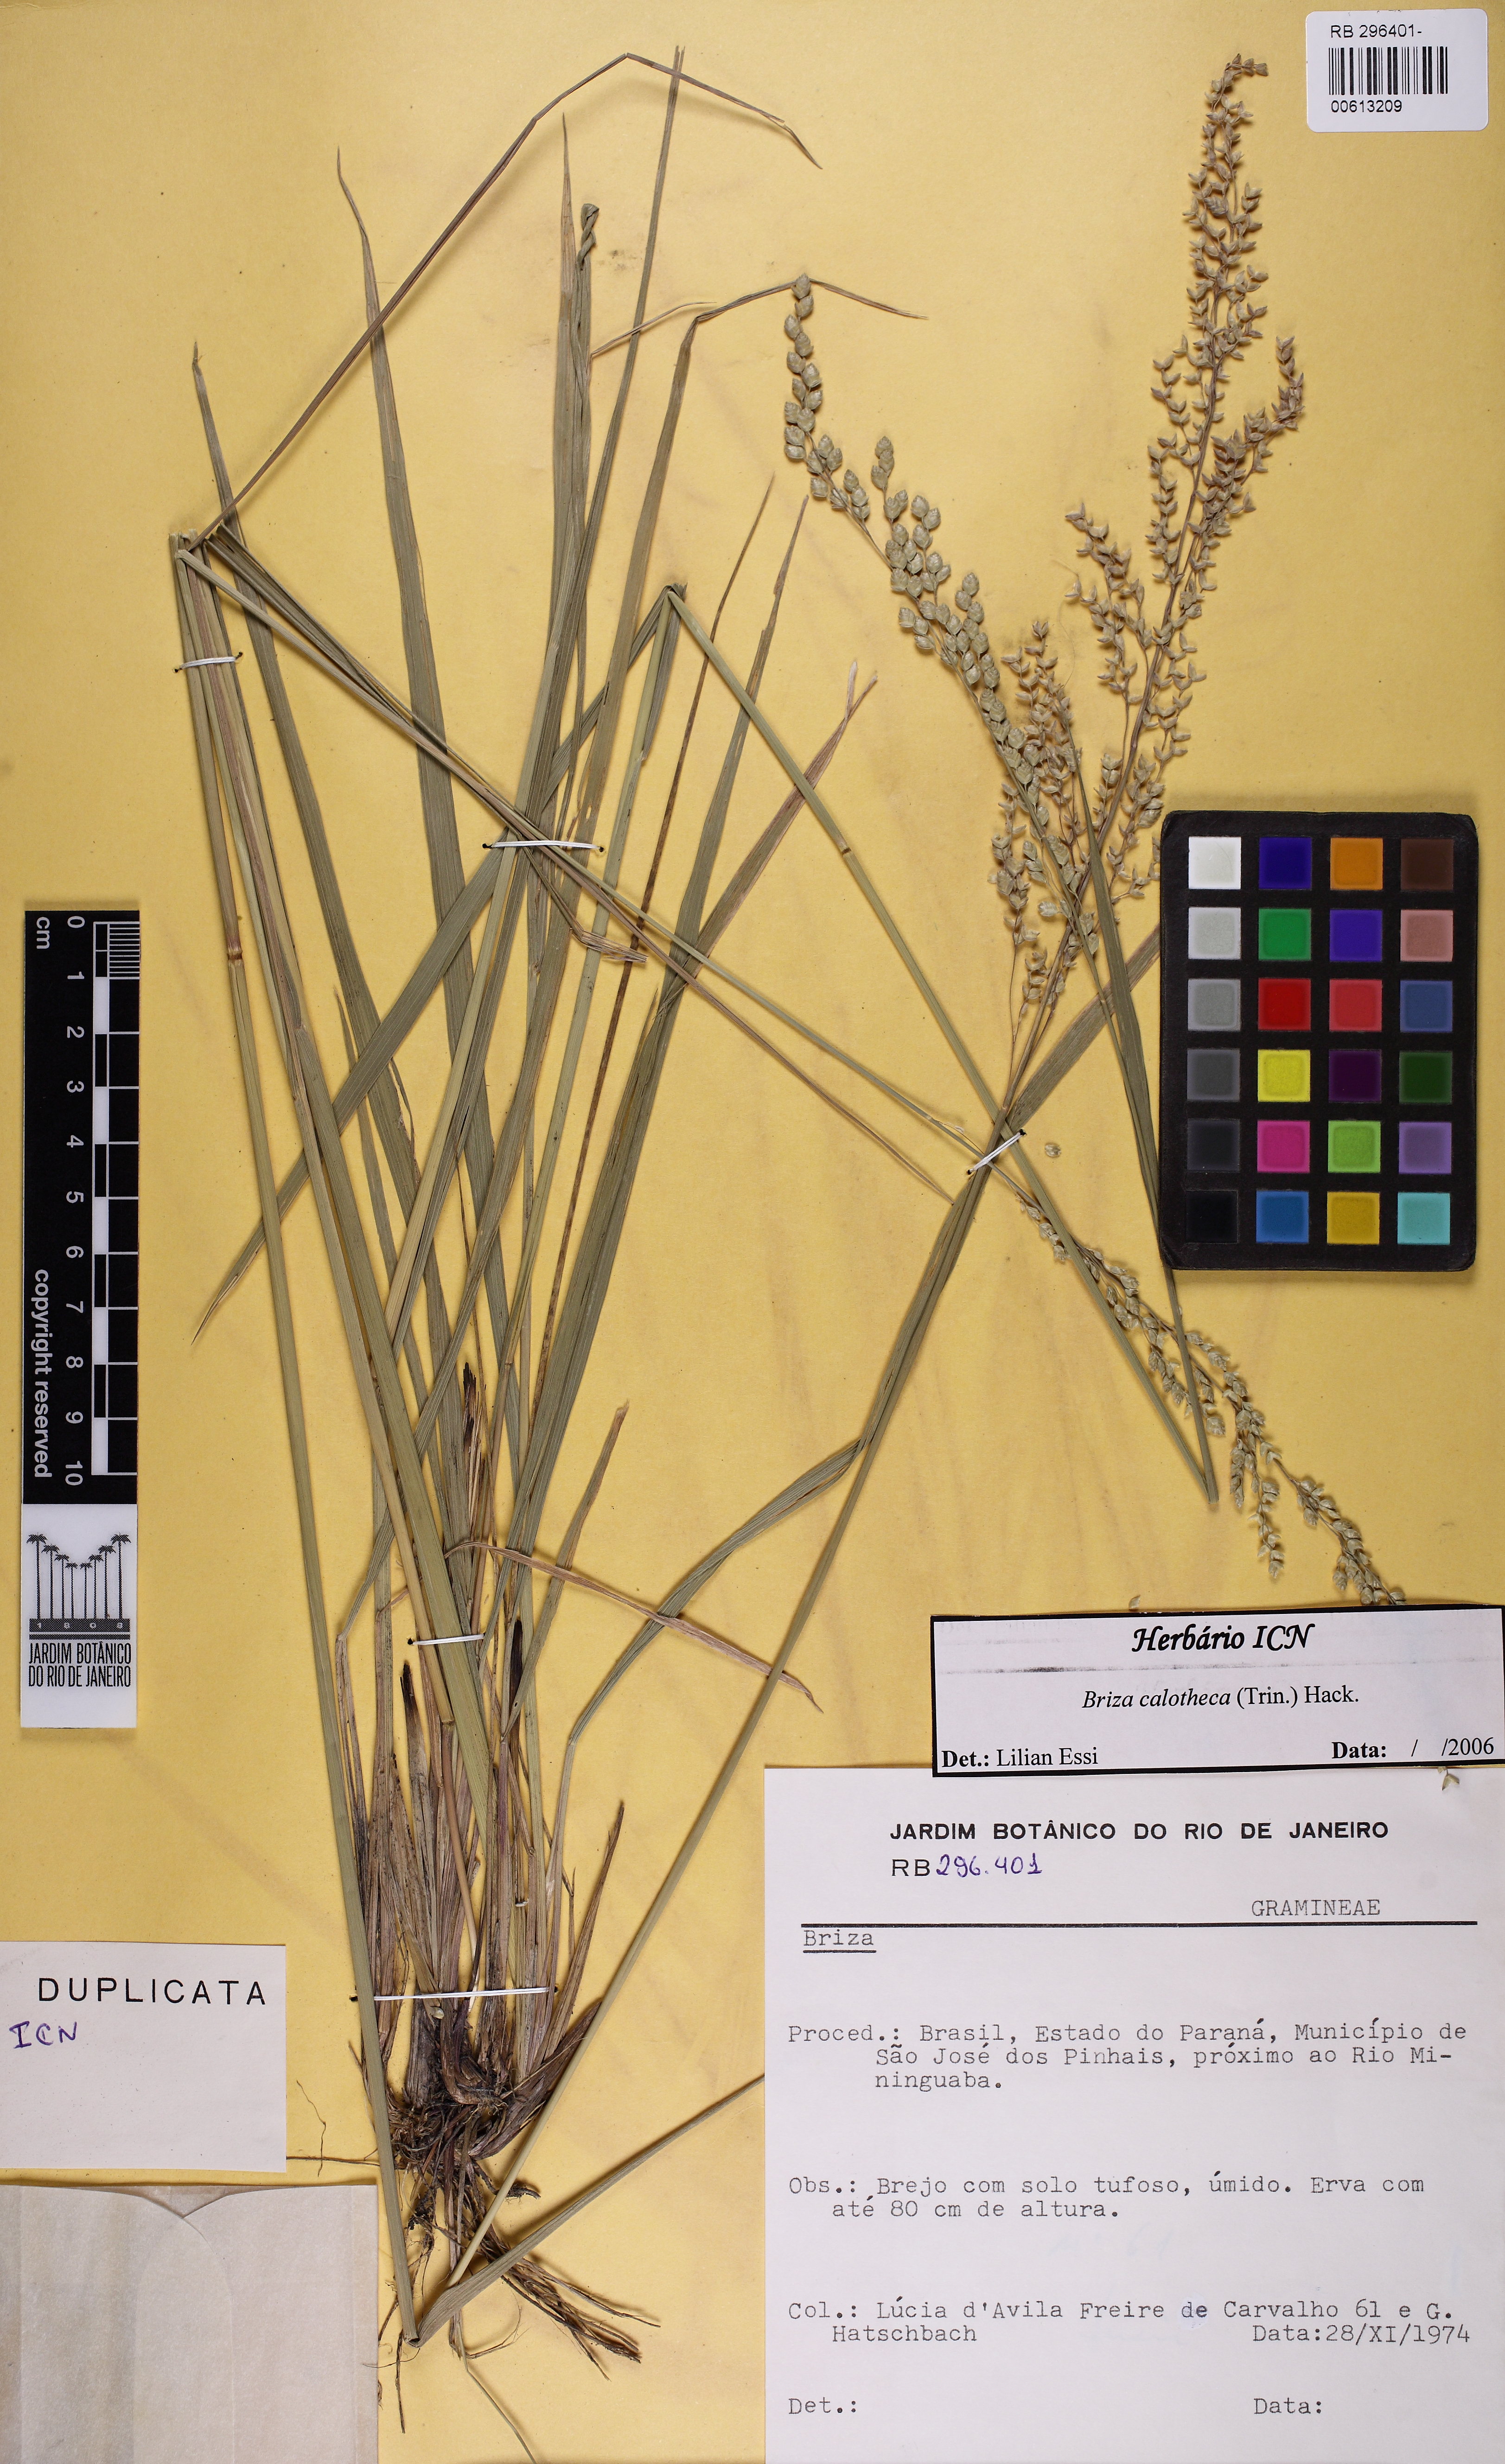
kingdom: Plantae
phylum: Tracheophyta
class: Liliopsida
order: Poales
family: Poaceae
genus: Poidium
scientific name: Poidium calotheca
